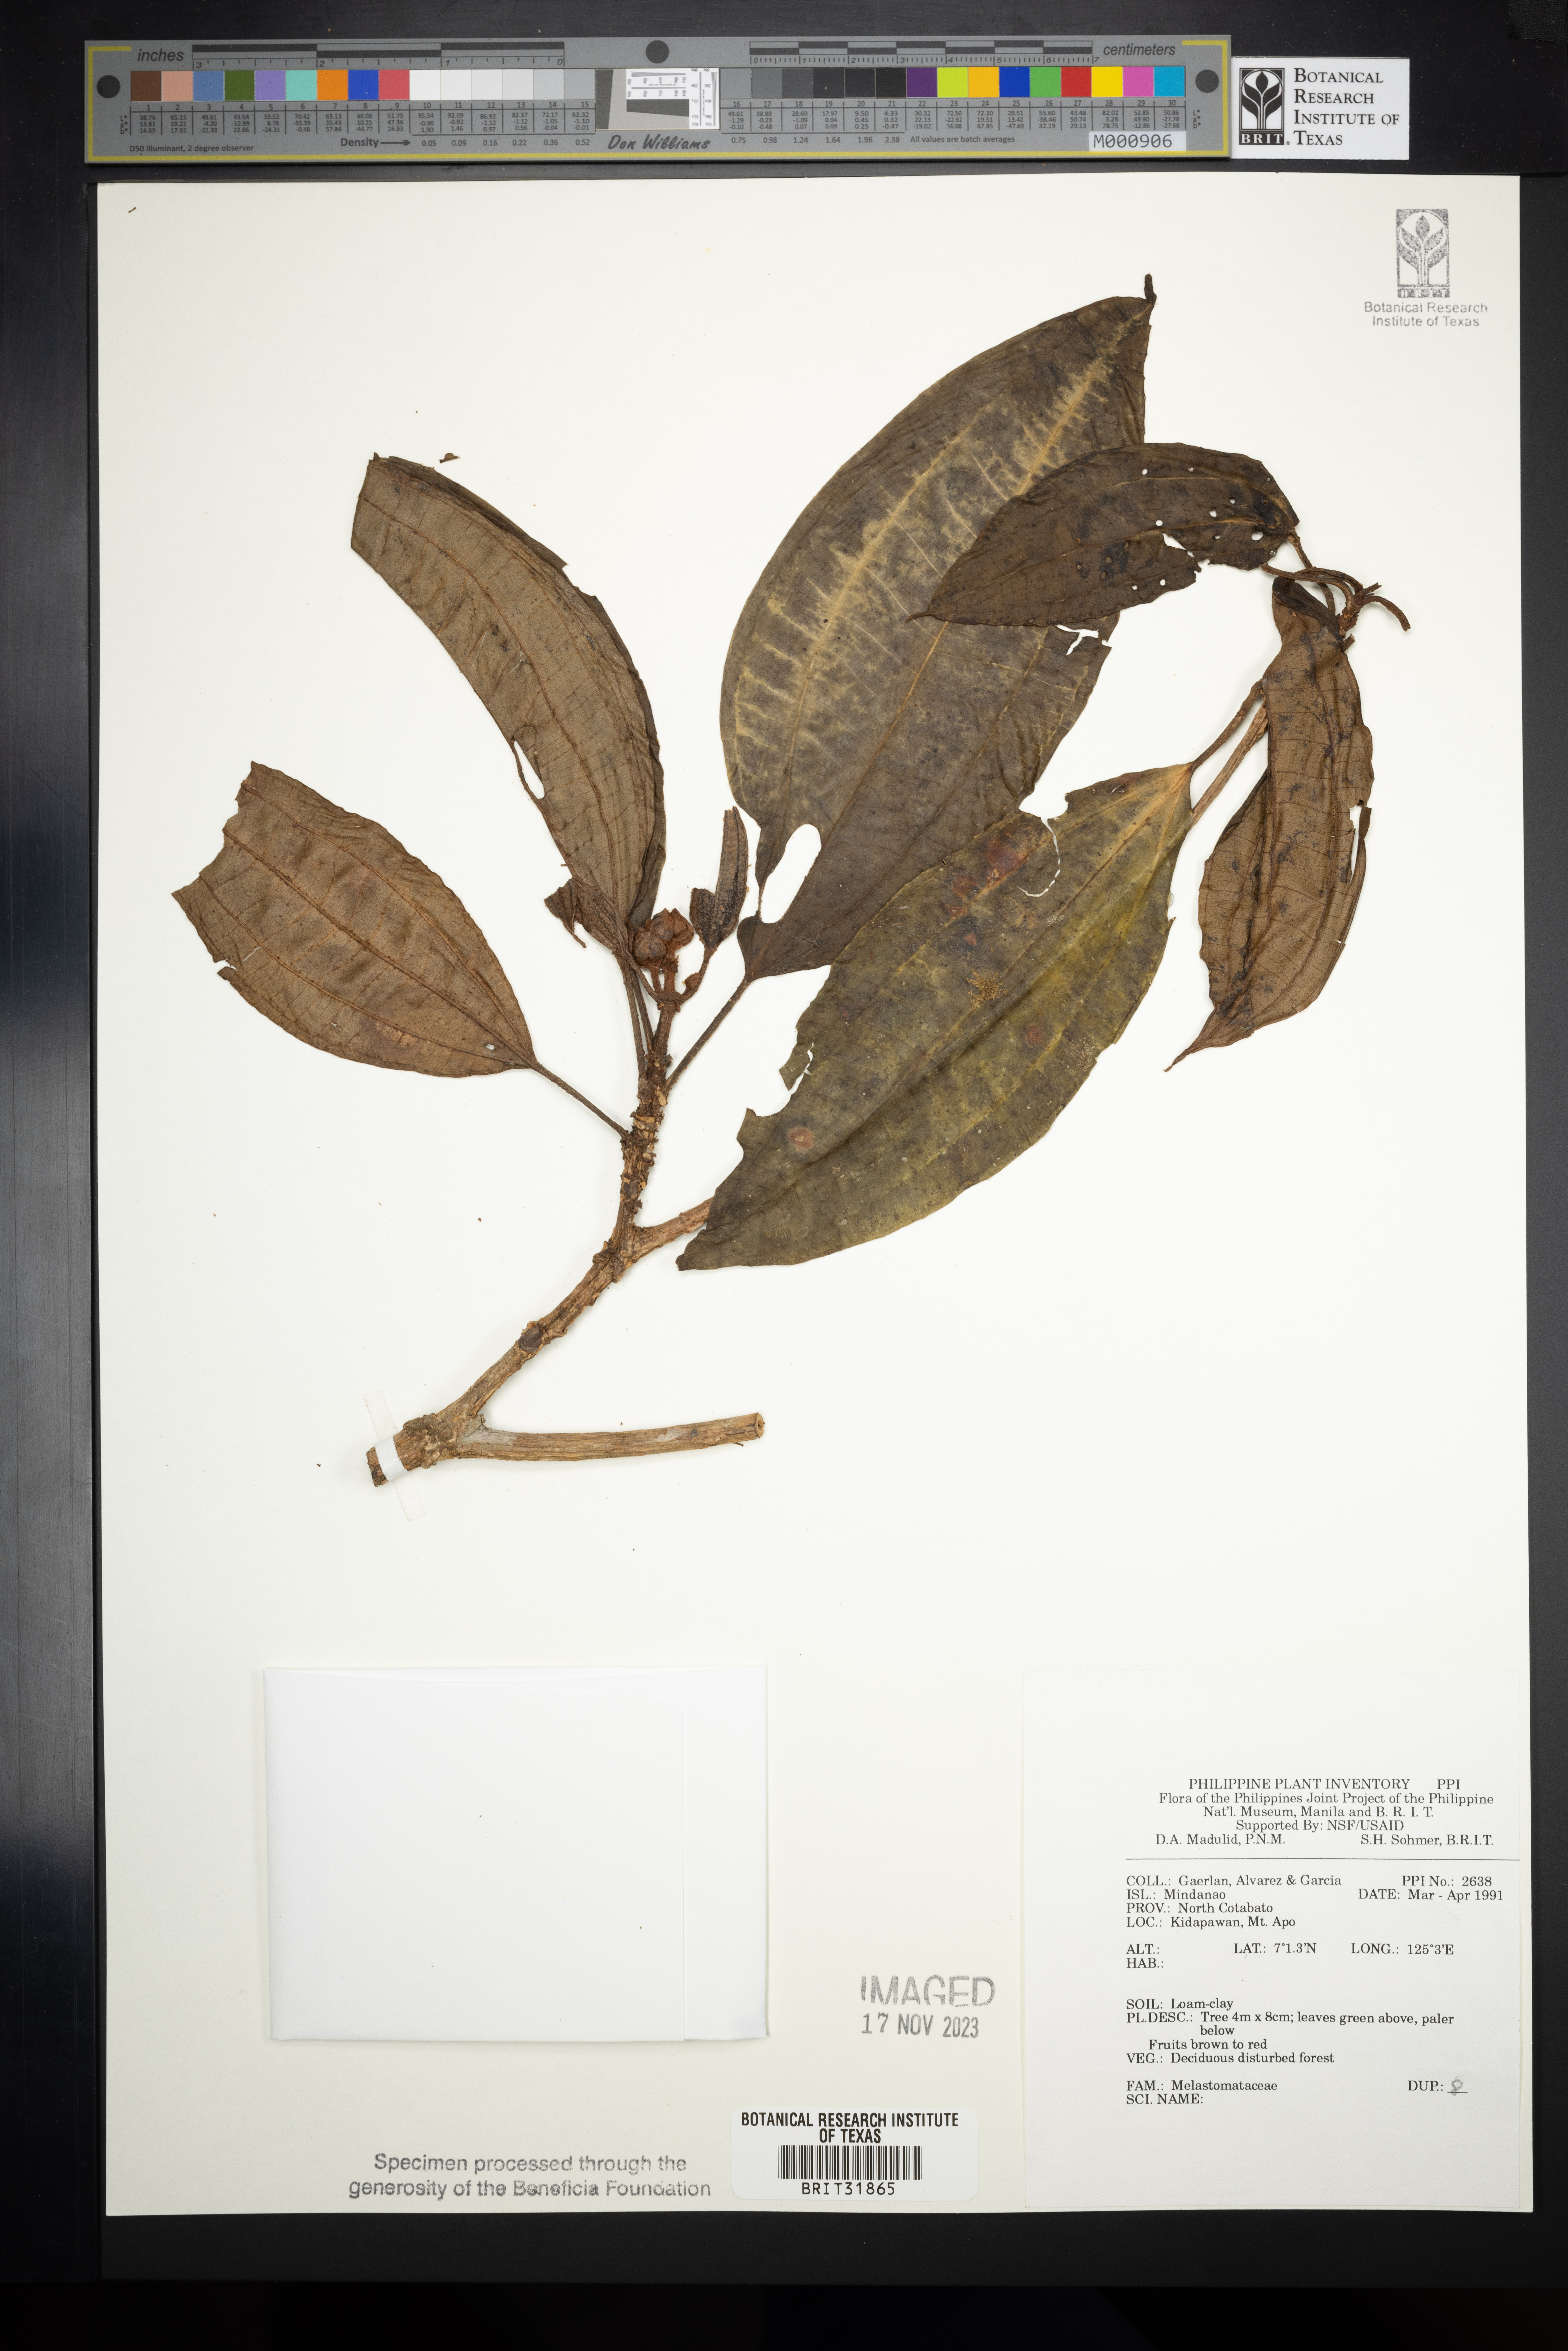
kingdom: Plantae
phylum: Tracheophyta
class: Magnoliopsida
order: Myrtales
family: Melastomataceae
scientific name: Melastomataceae
